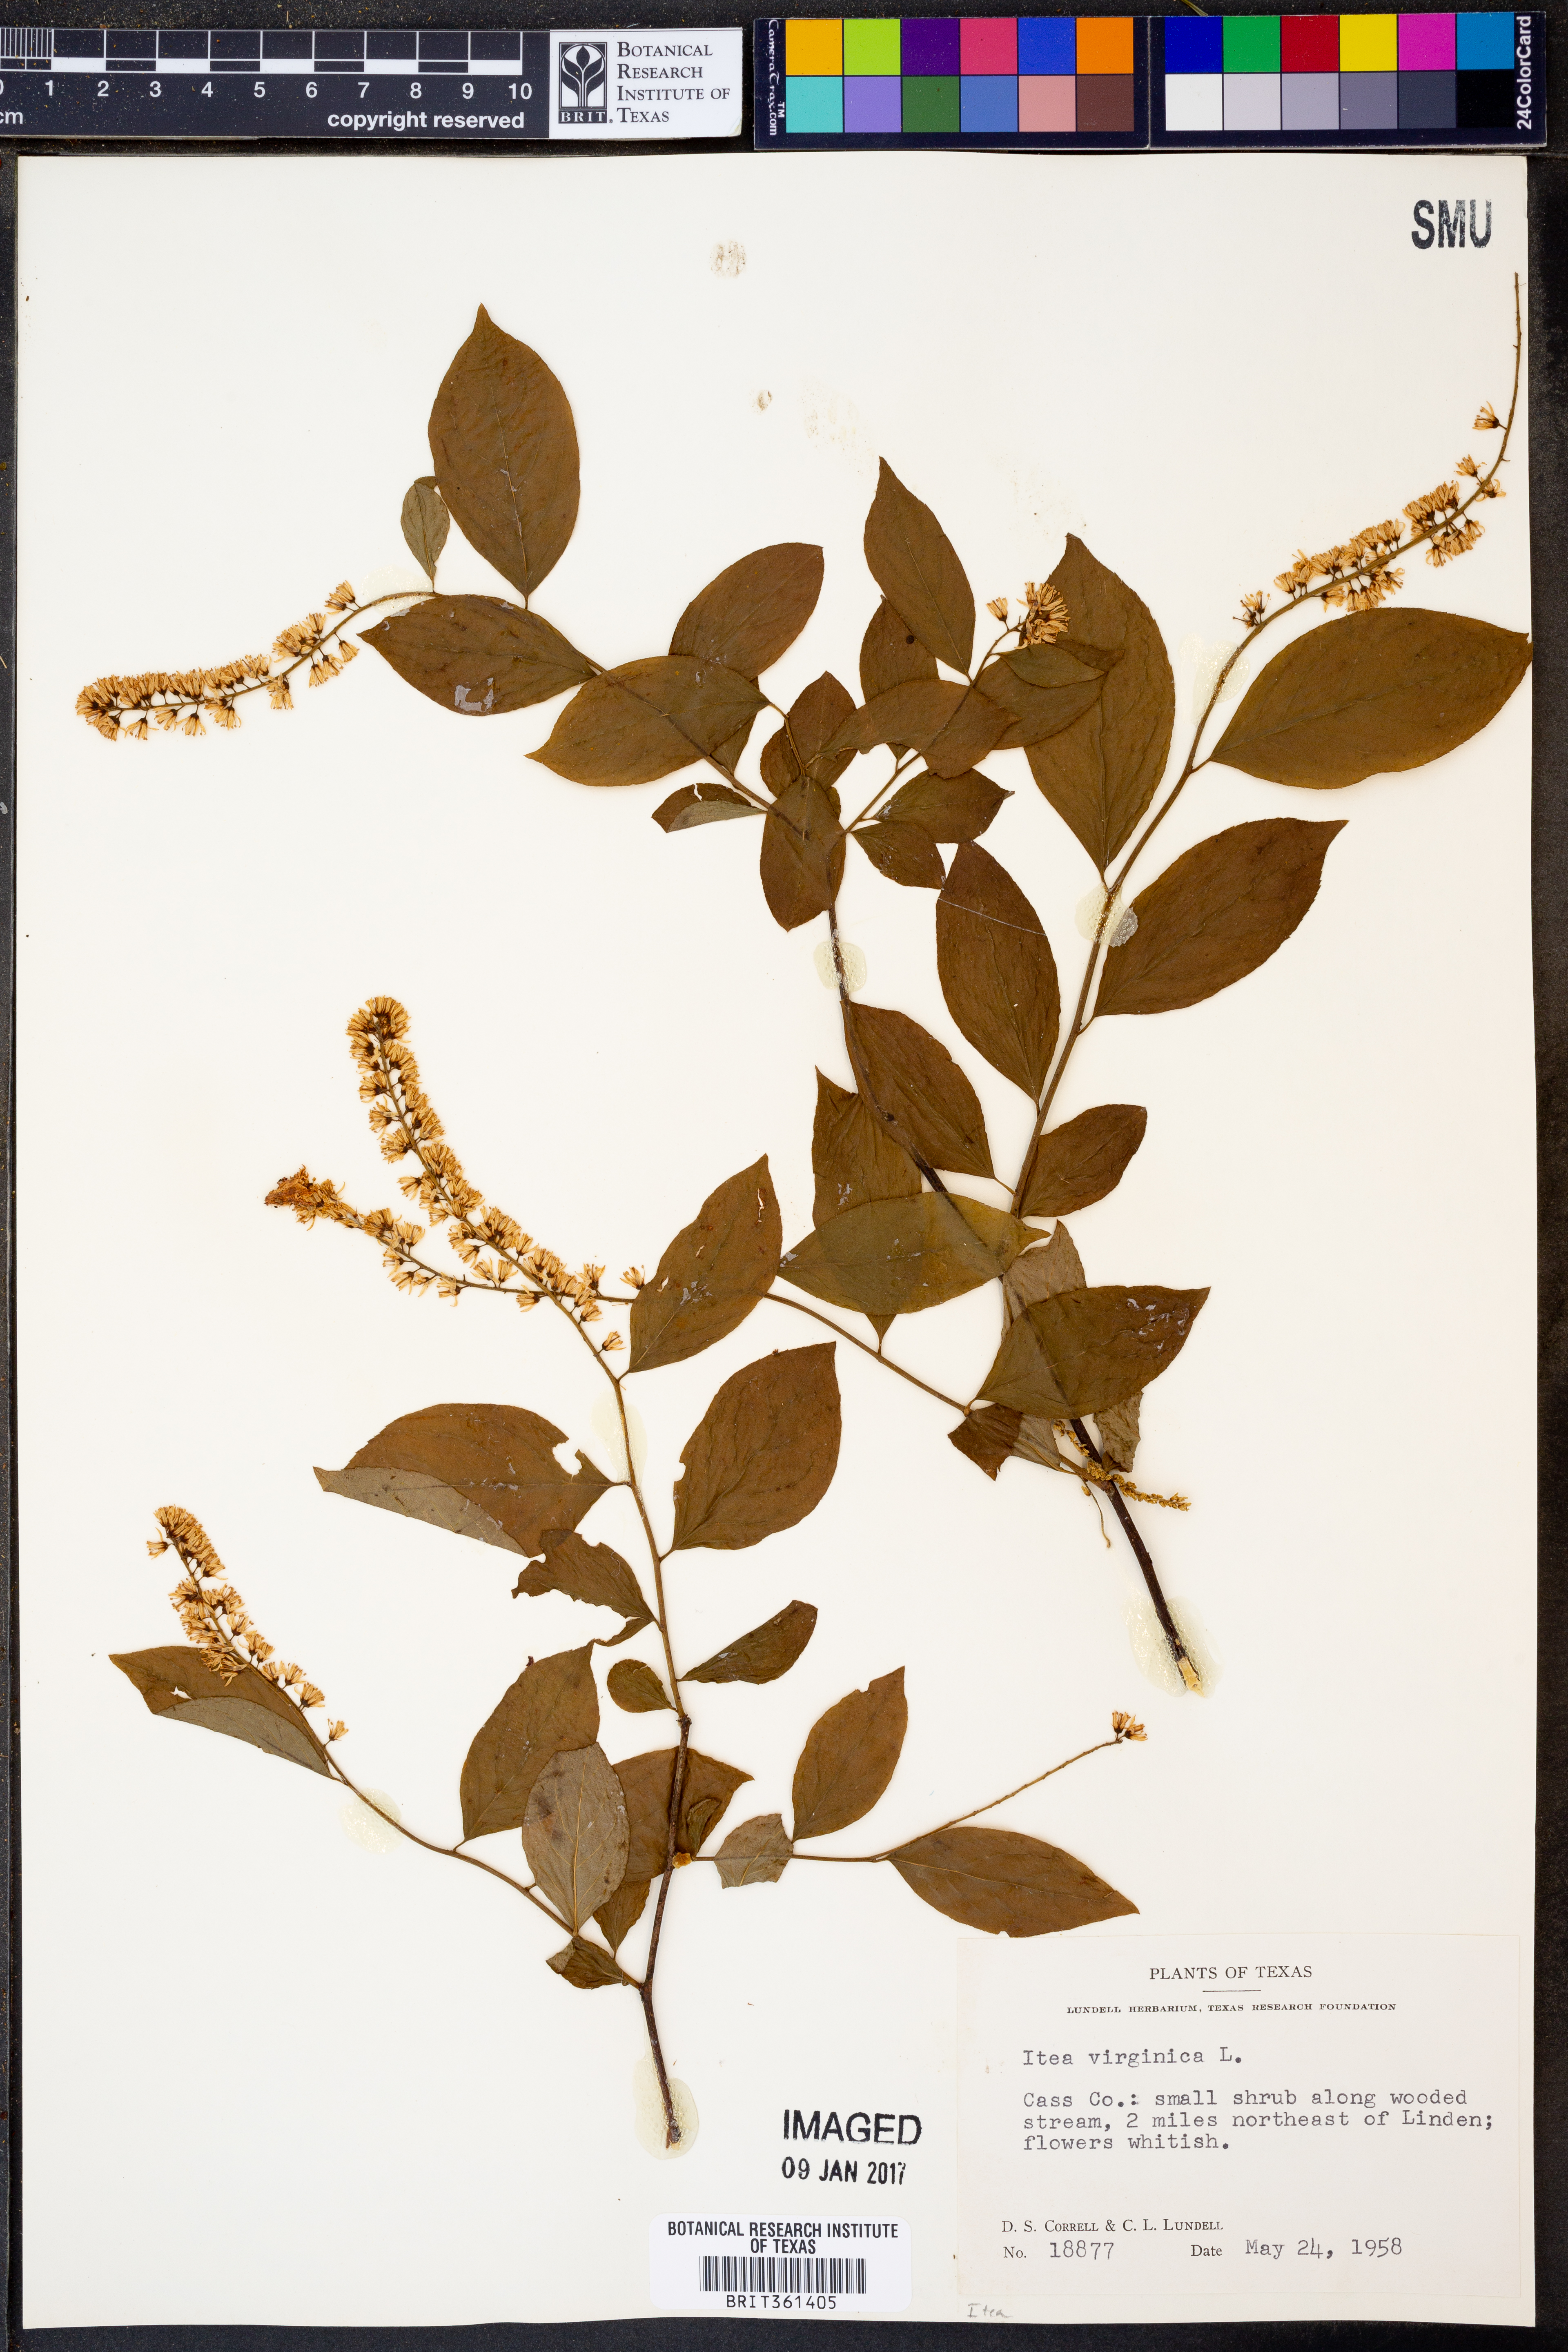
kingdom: Plantae
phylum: Tracheophyta
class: Magnoliopsida
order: Saxifragales
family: Iteaceae
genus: Itea
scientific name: Itea virginica
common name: Sweetspire
